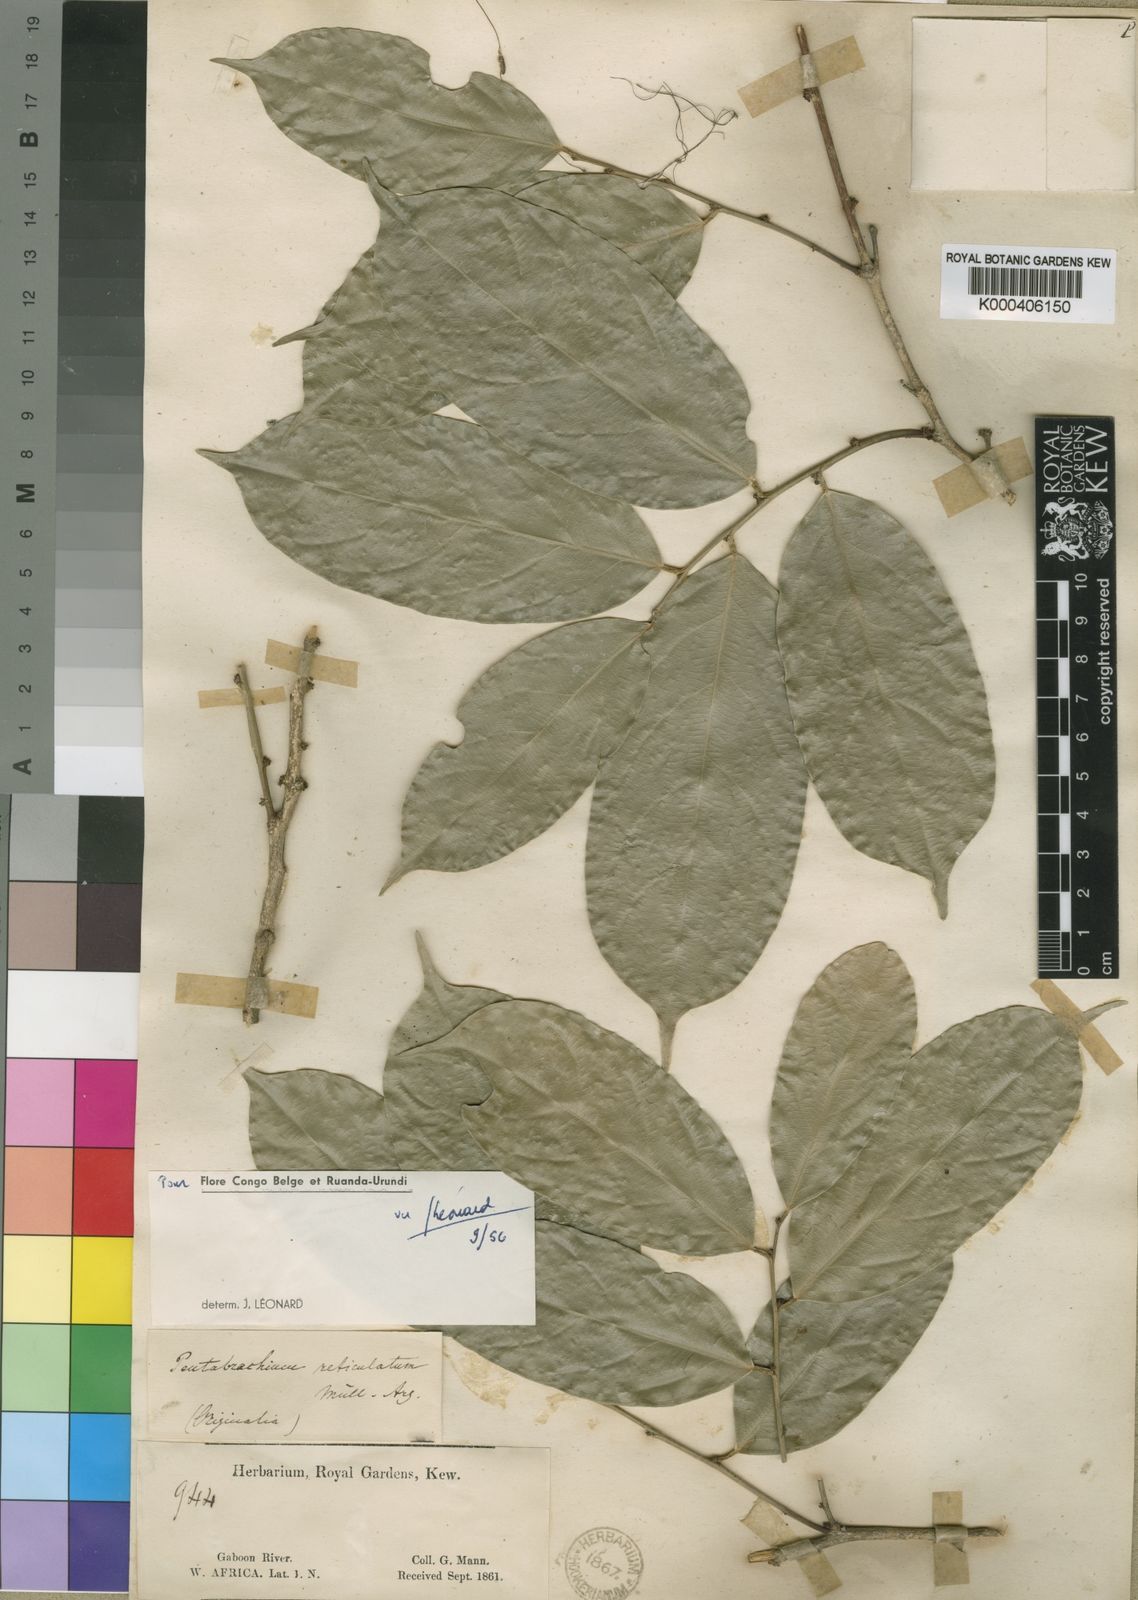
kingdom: Plantae
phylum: Tracheophyta
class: Magnoliopsida
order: Malpighiales
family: Phyllanthaceae
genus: Pentabrachion
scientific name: Pentabrachion
